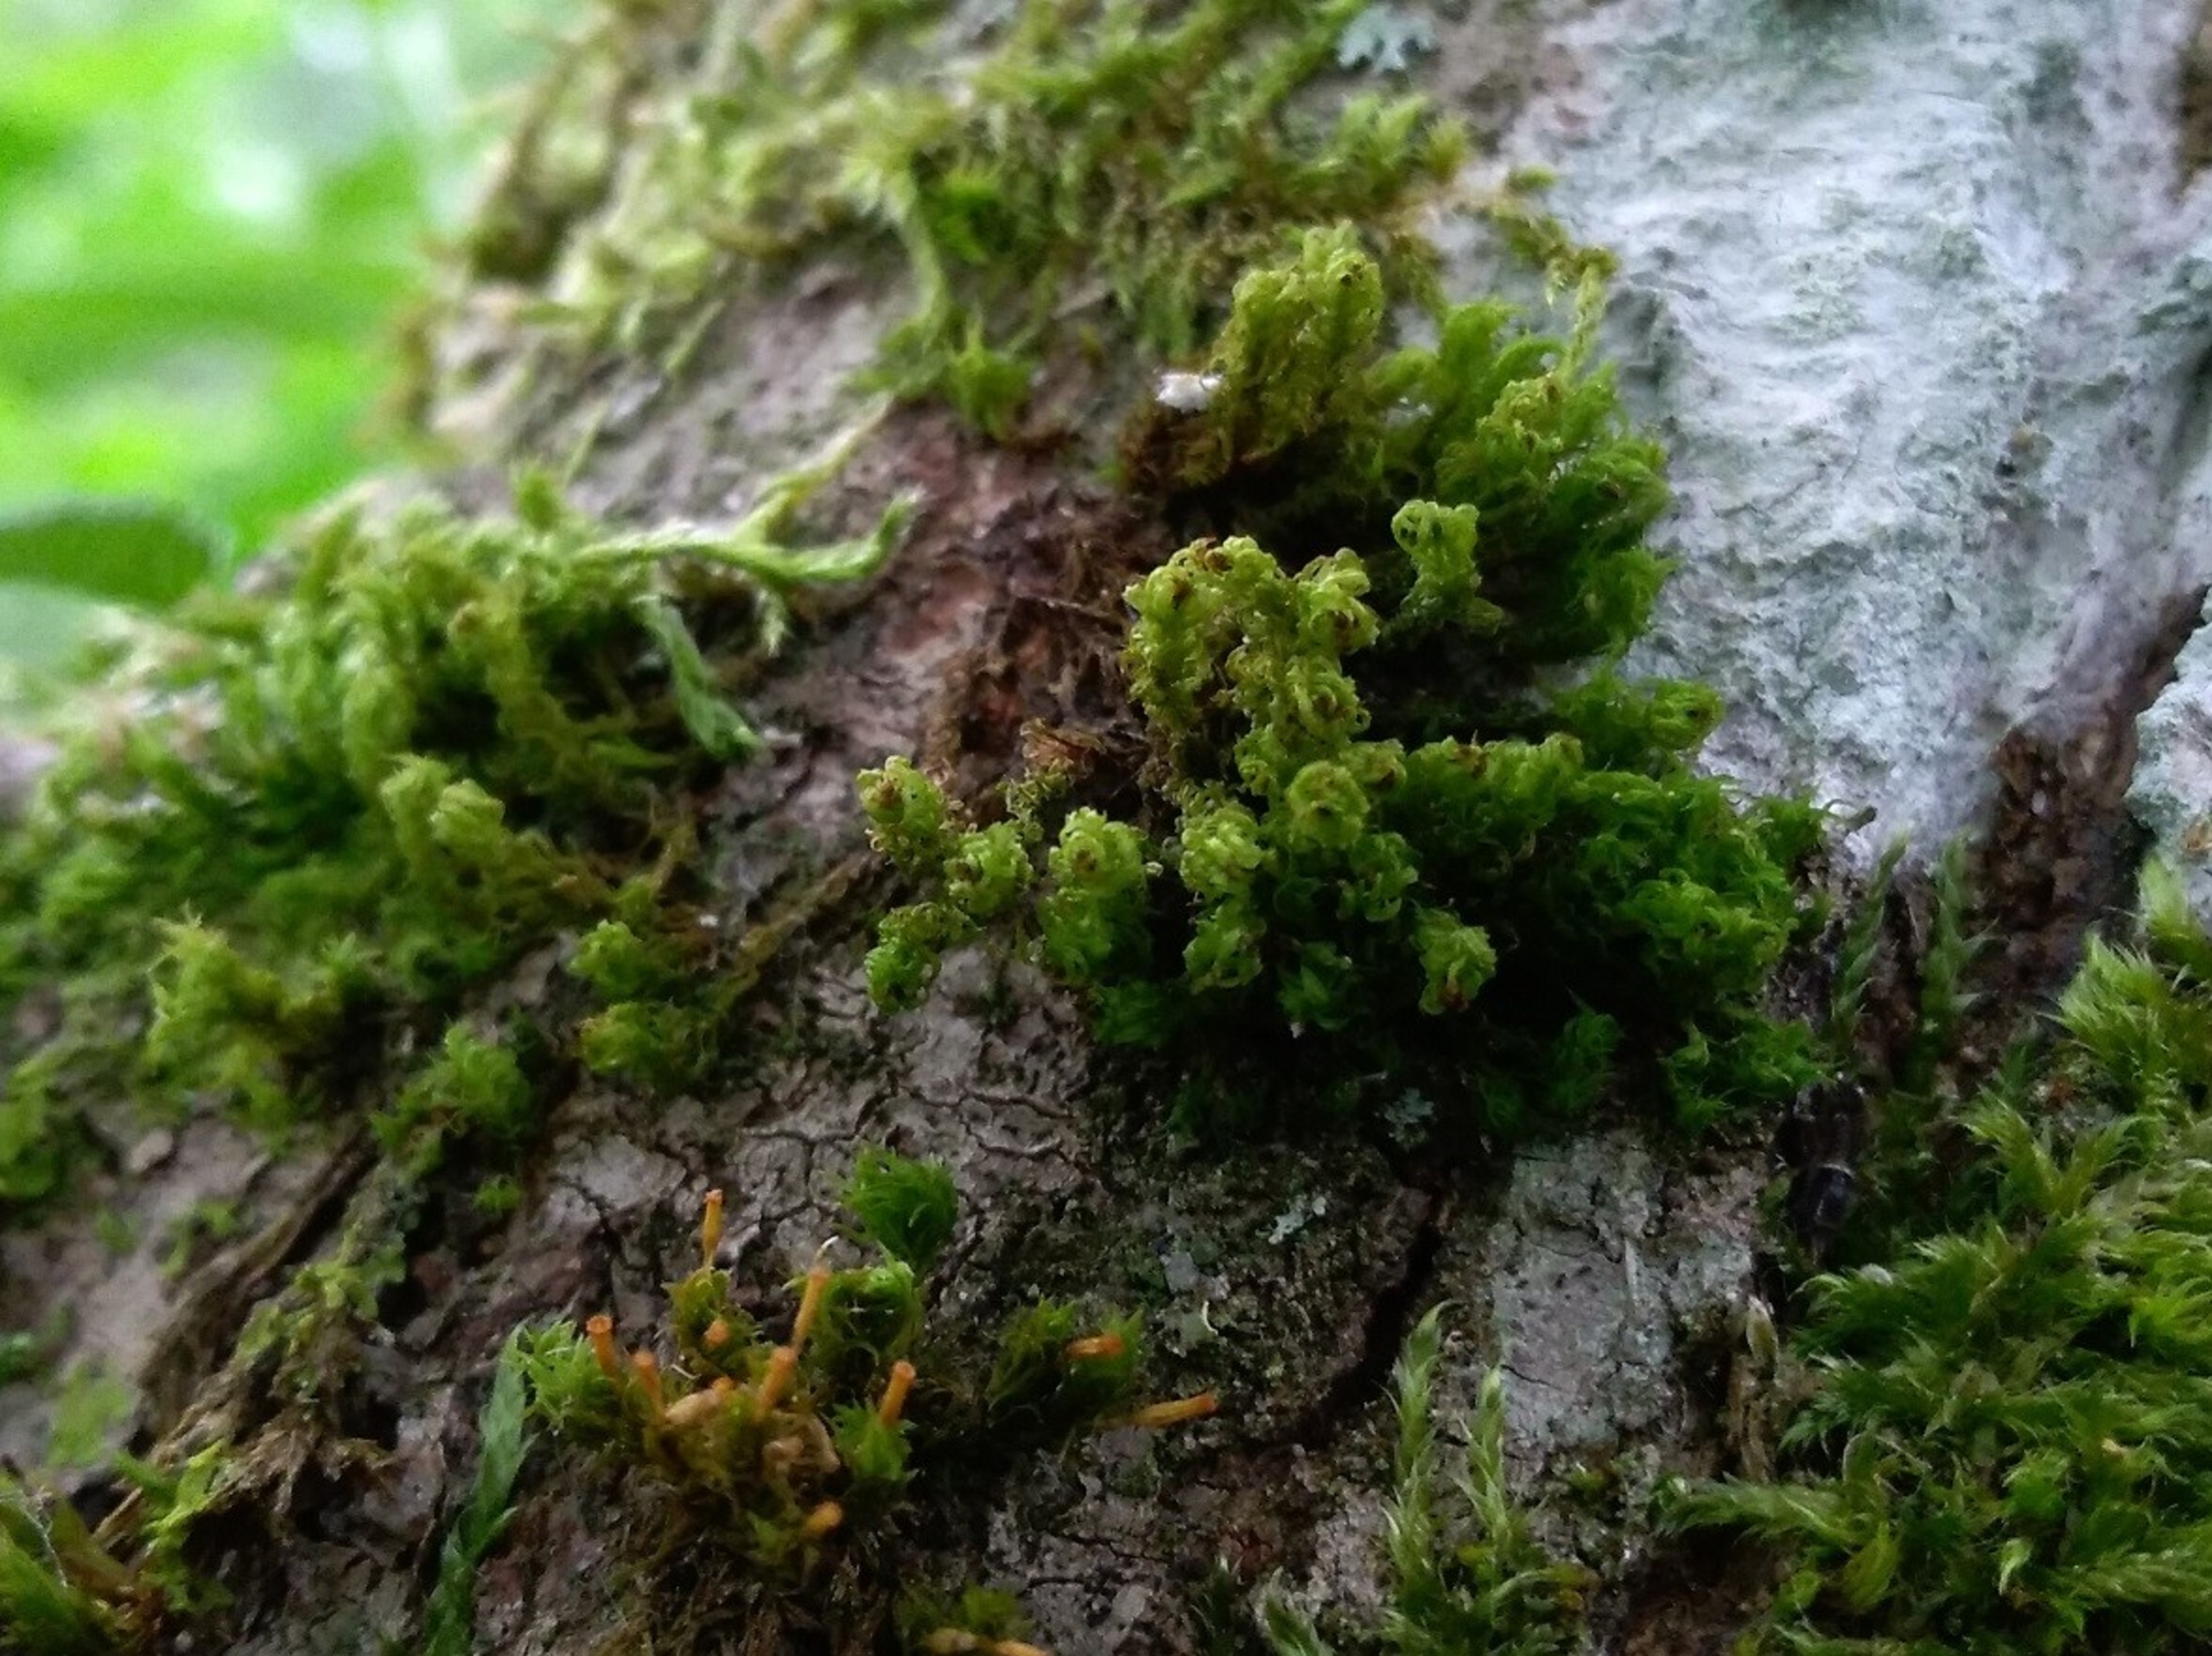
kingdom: Plantae
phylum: Bryophyta
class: Bryopsida
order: Orthotrichales
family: Orthotrichaceae
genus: Plenogemma
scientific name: Plenogemma phyllantha
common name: Stor låddenhætte
